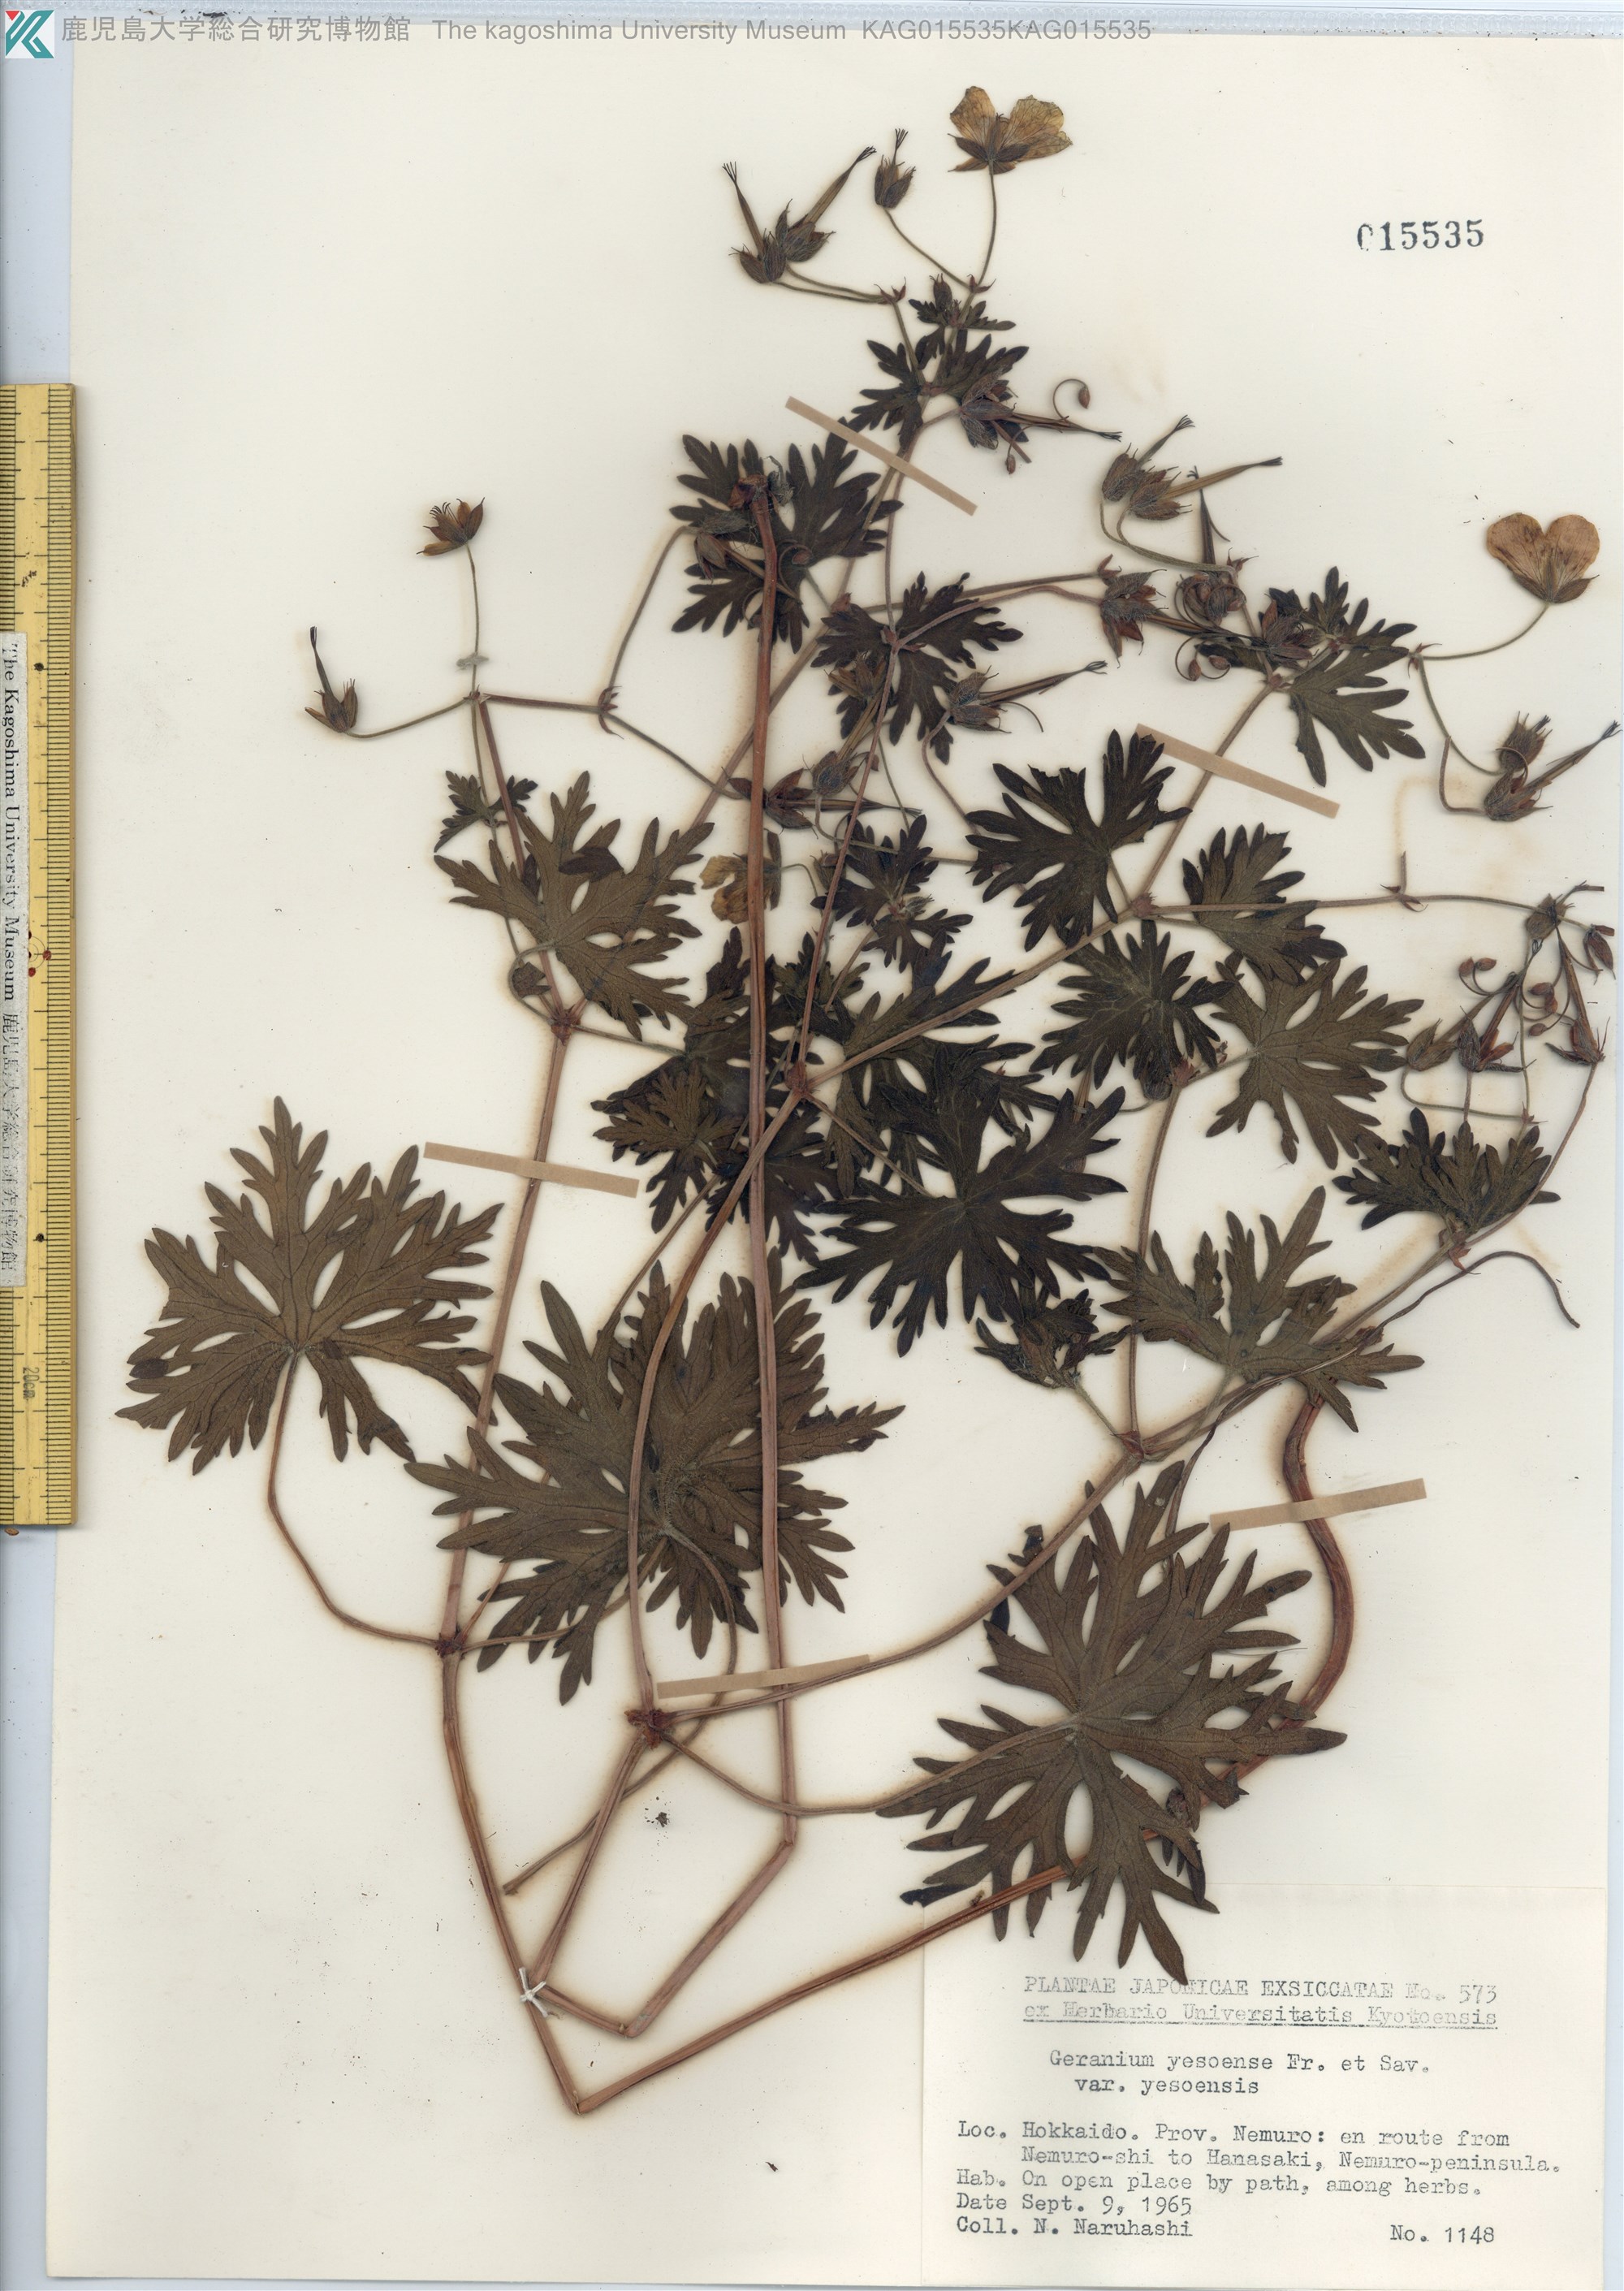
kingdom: Plantae
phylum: Tracheophyta
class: Magnoliopsida
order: Geraniales
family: Geraniaceae
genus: Geranium
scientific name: Geranium yesoense
